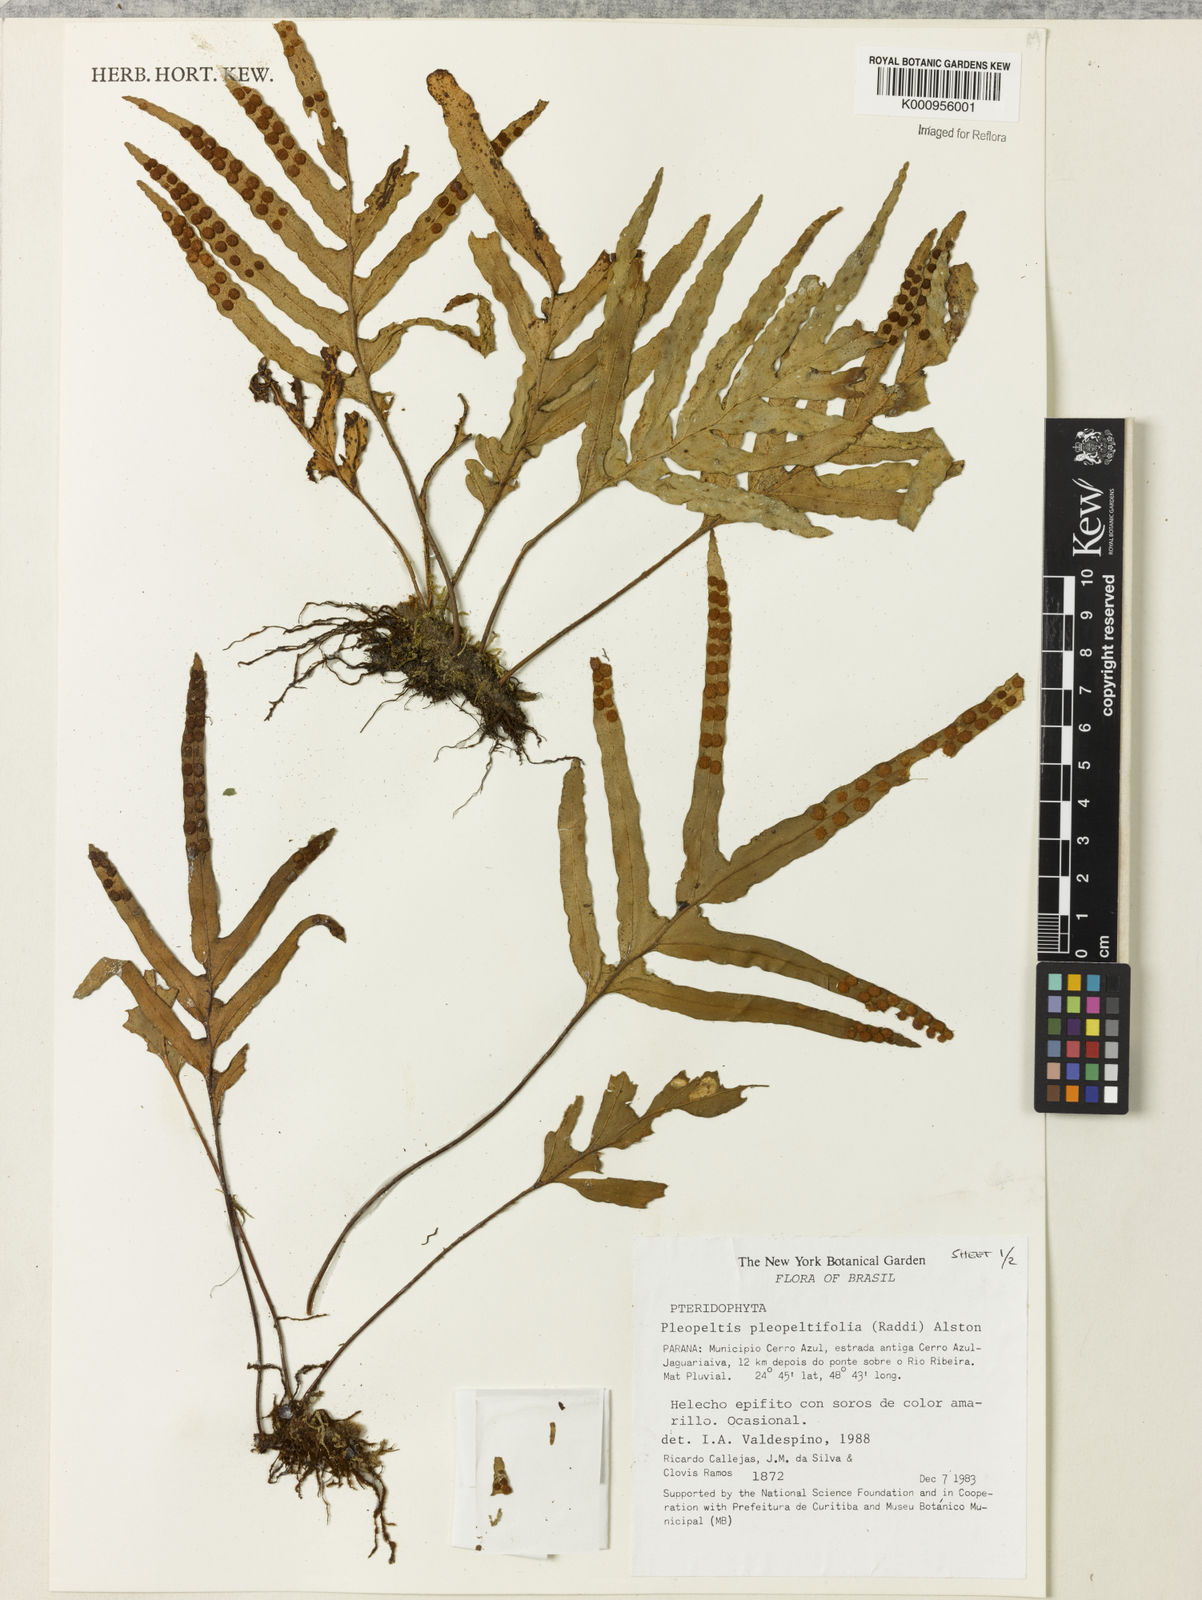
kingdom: Plantae
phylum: Tracheophyta
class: Polypodiopsida
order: Polypodiales
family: Polypodiaceae
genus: Pleopeltis
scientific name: Pleopeltis angusta
